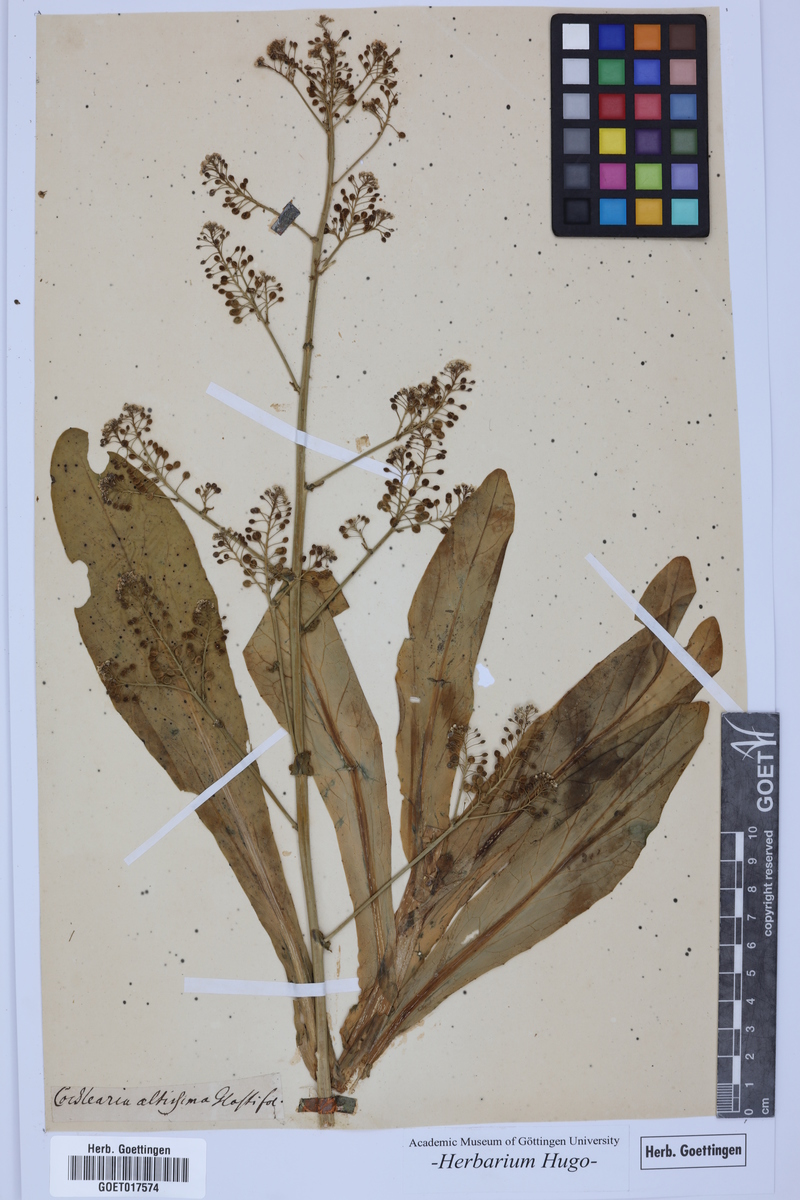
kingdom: Plantae
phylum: Tracheophyta
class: Magnoliopsida
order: Brassicales
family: Brassicaceae
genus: Cochlearia
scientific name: Cochlearia
